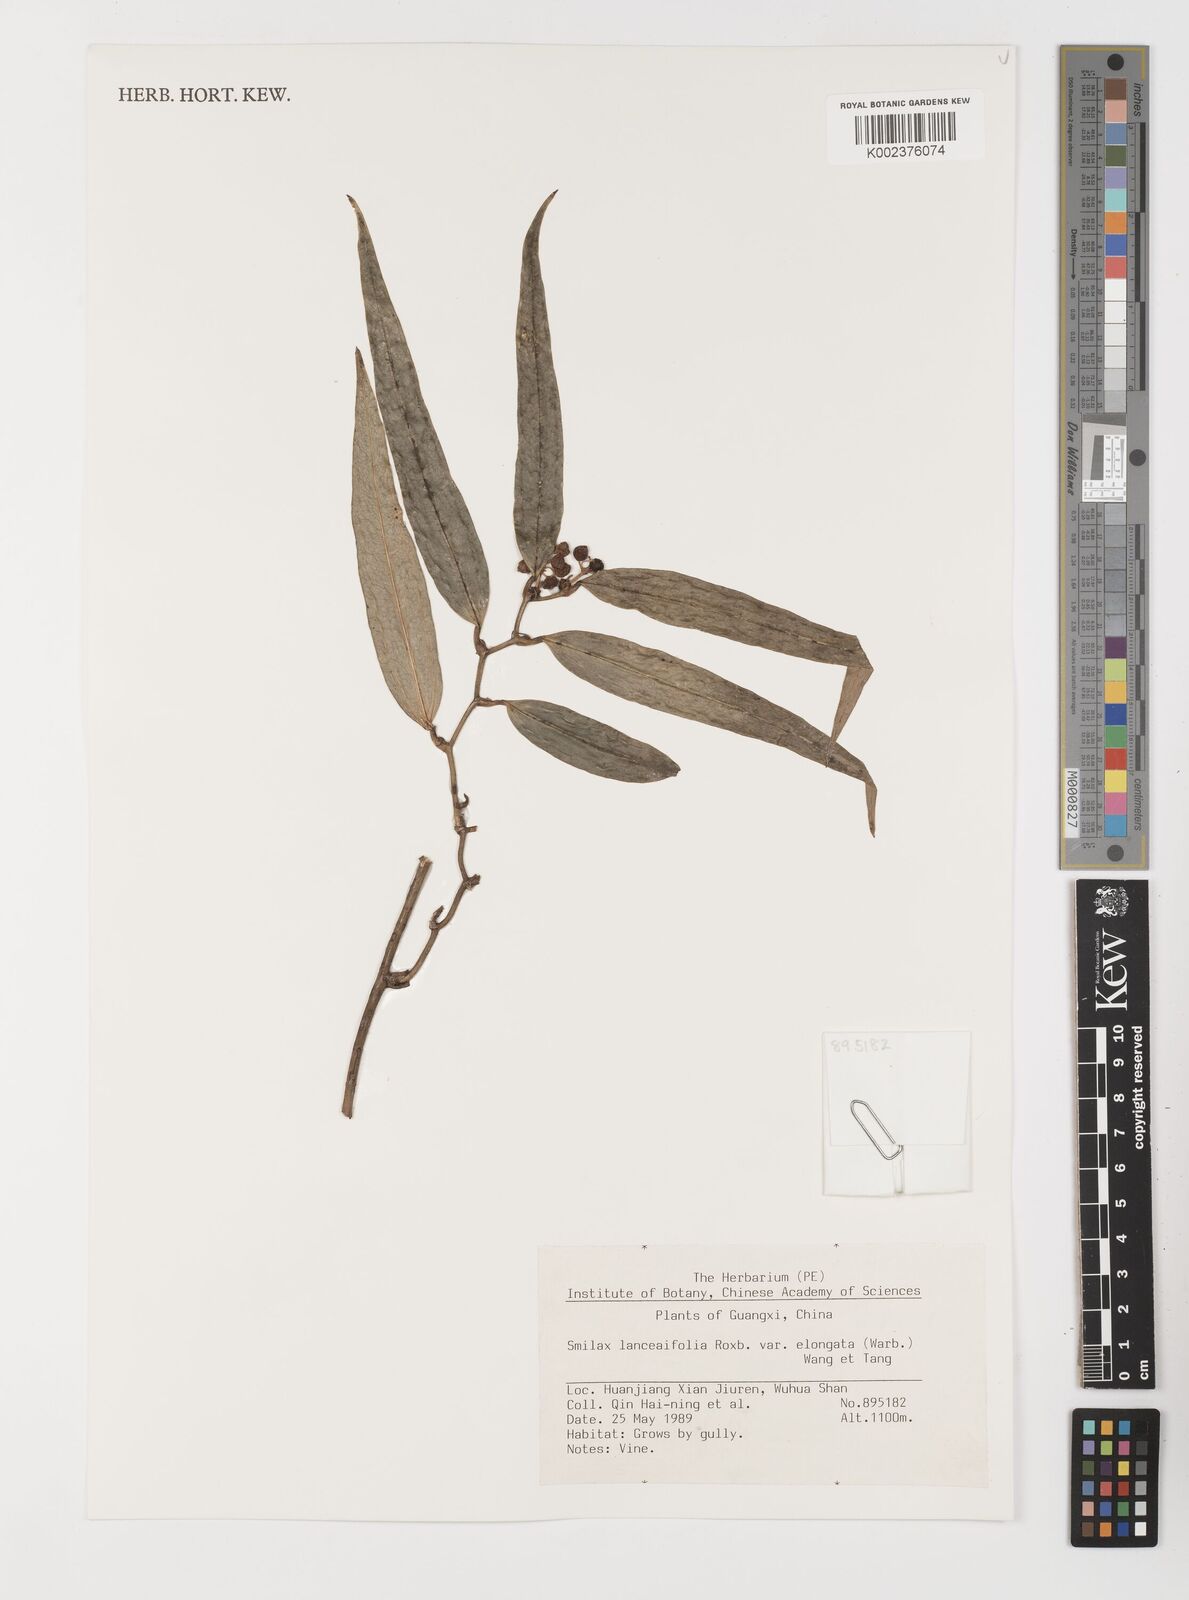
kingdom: Plantae
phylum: Tracheophyta
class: Liliopsida
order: Liliales
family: Smilacaceae
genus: Smilax
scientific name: Smilax lanceifolia
